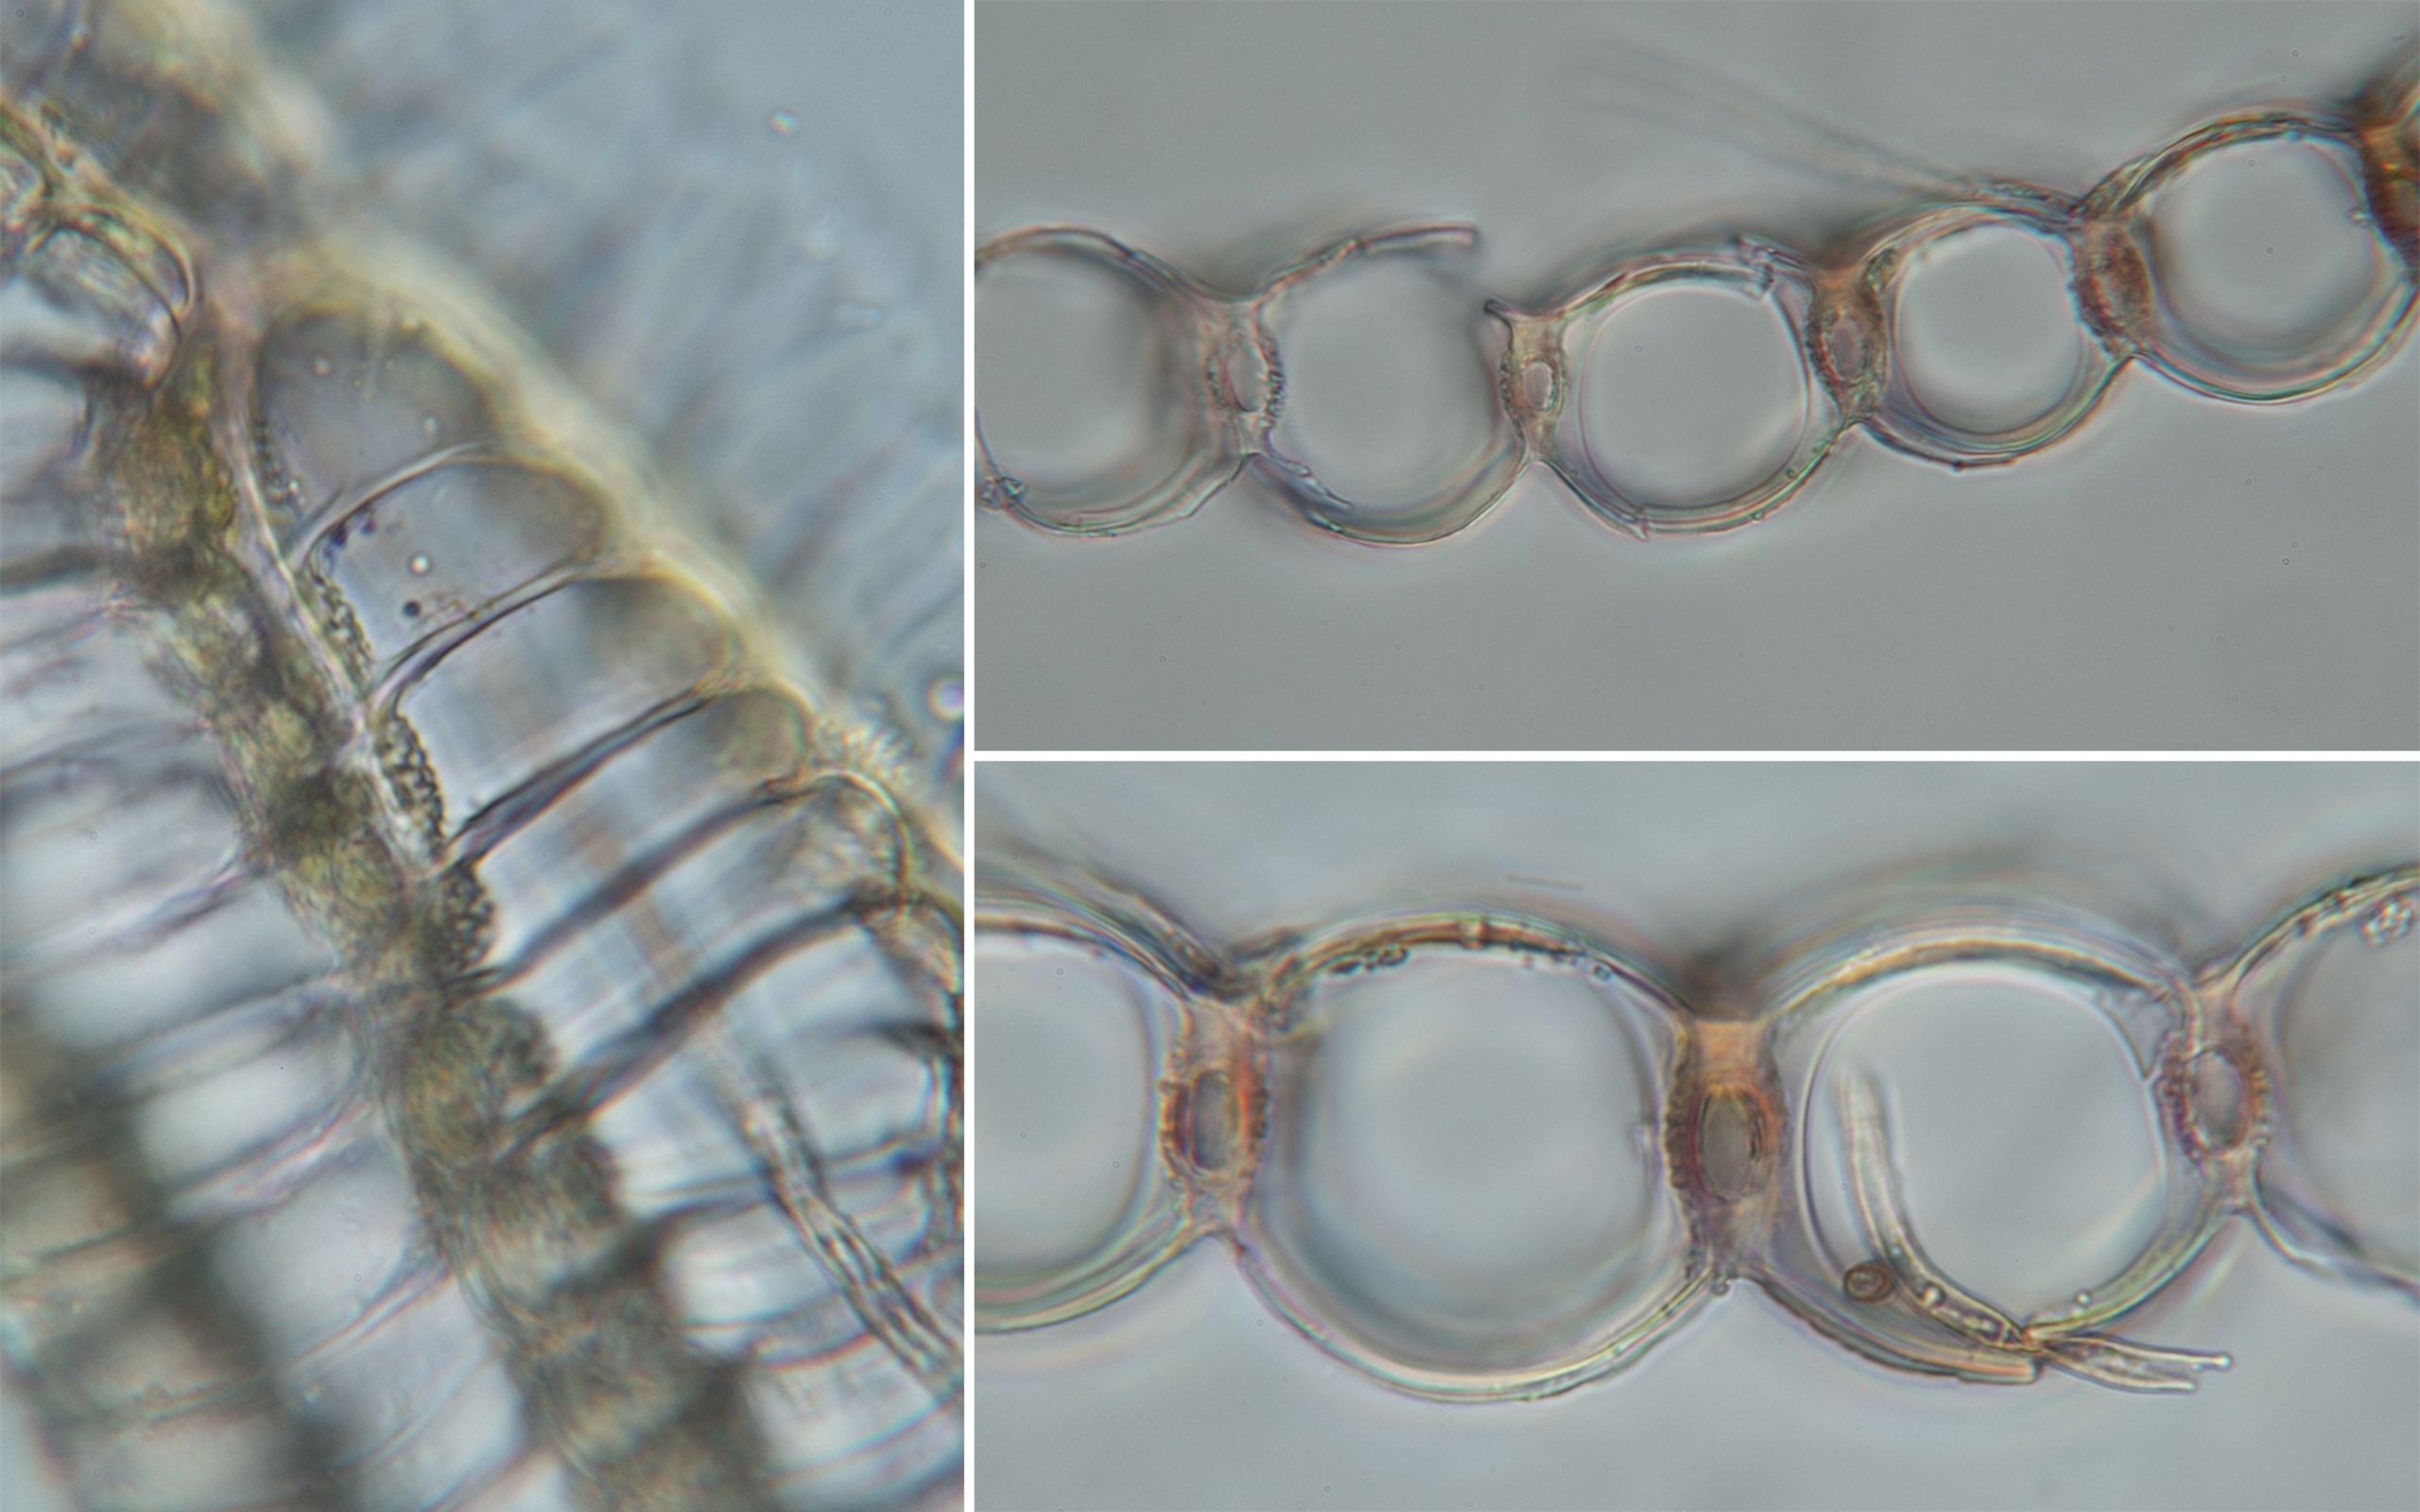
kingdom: Plantae
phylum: Bryophyta
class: Sphagnopsida
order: Sphagnales
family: Sphagnaceae
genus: Sphagnum
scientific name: Sphagnum papillosum
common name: Sod-tørvemos
